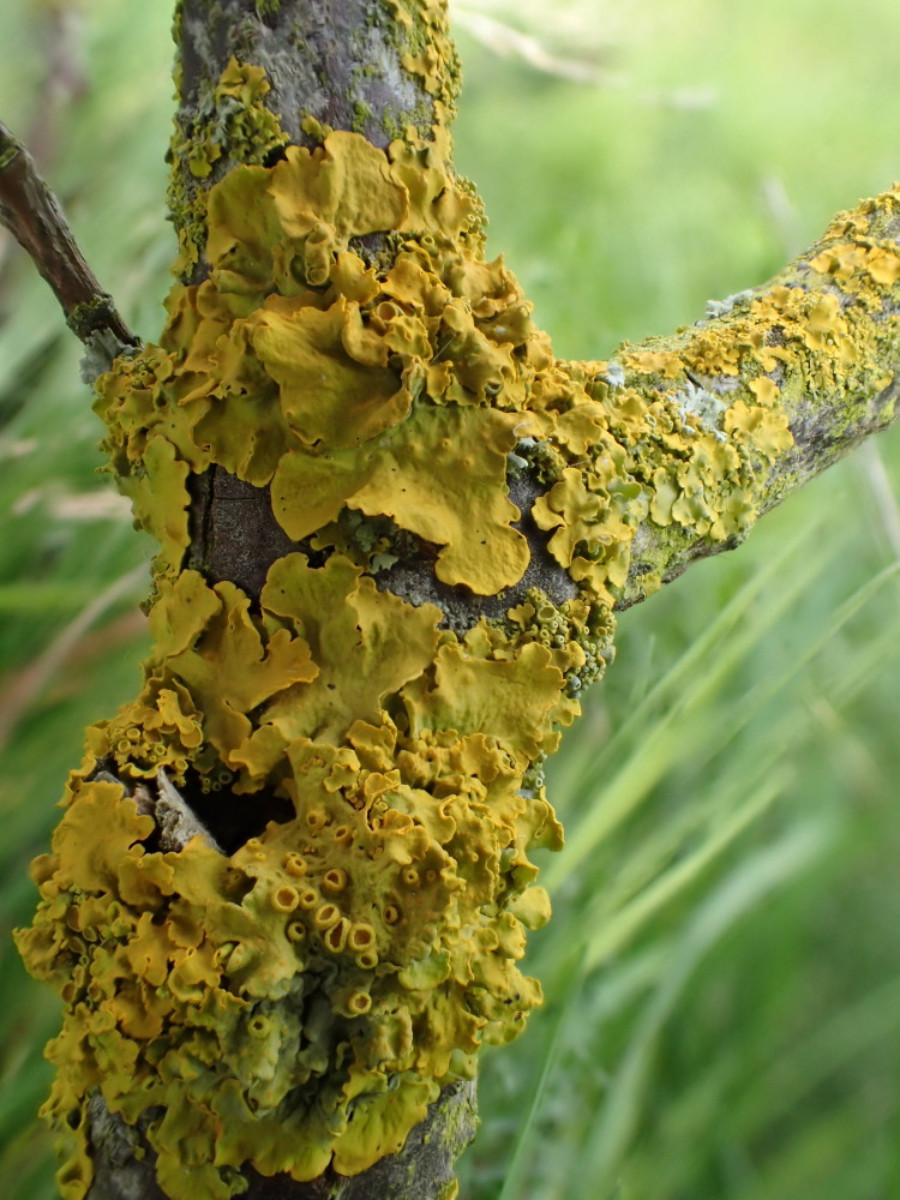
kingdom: Fungi
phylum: Ascomycota
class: Lecanoromycetes
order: Teloschistales
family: Teloschistaceae
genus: Xanthoria
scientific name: Xanthoria parietina
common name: almindelig væggelav
